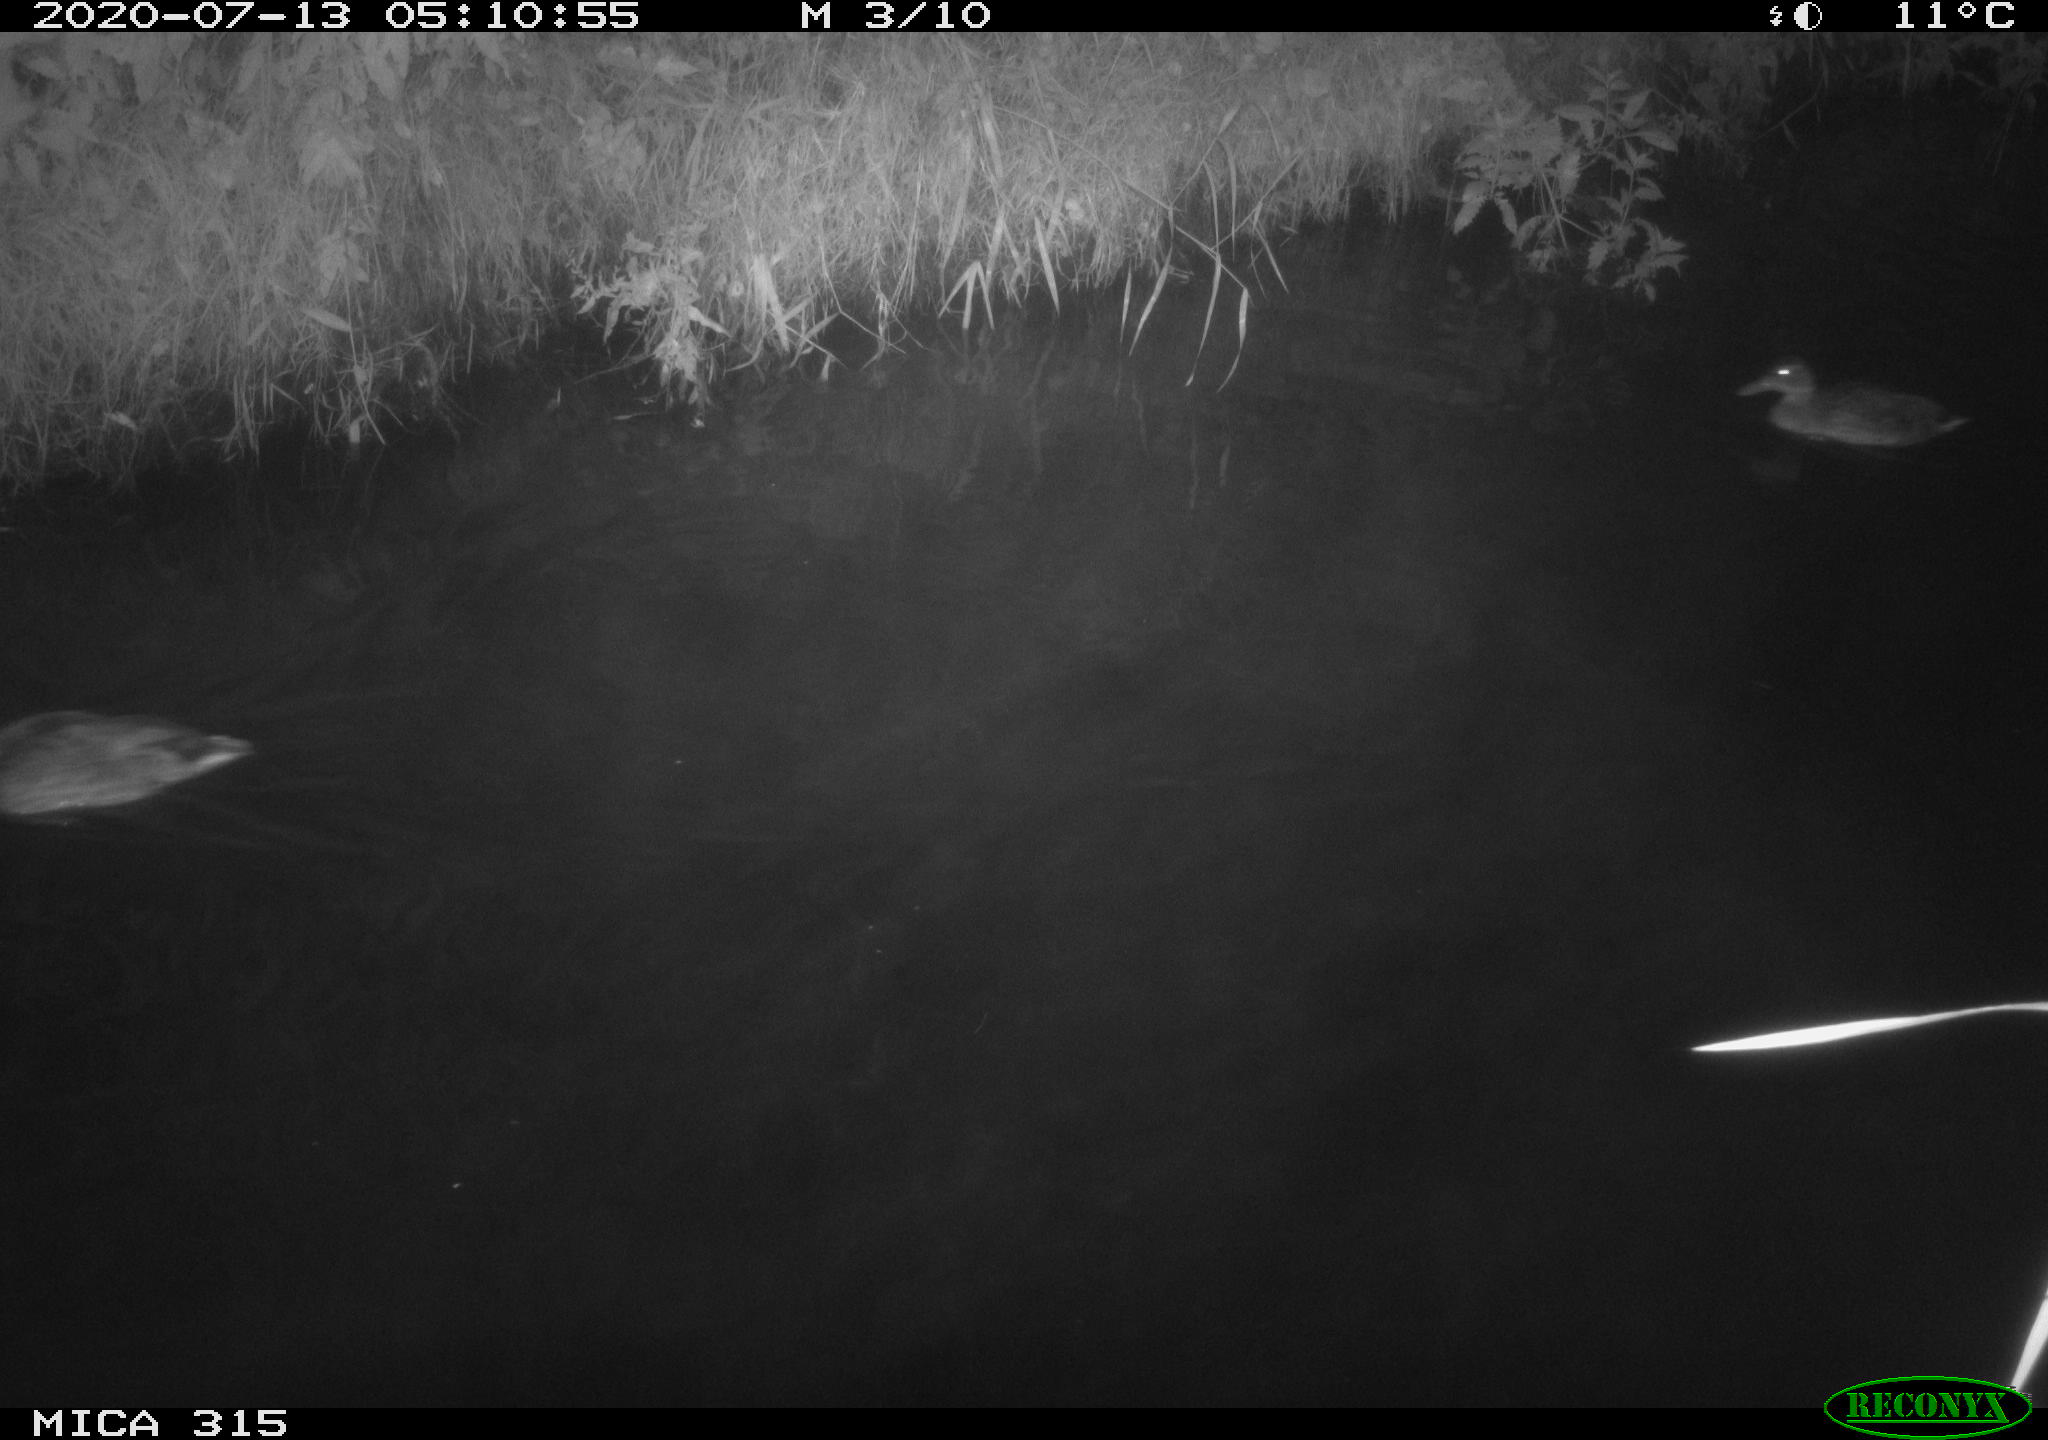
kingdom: Animalia
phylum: Chordata
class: Aves
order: Anseriformes
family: Anatidae
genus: Anas
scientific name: Anas platyrhynchos
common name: Mallard
